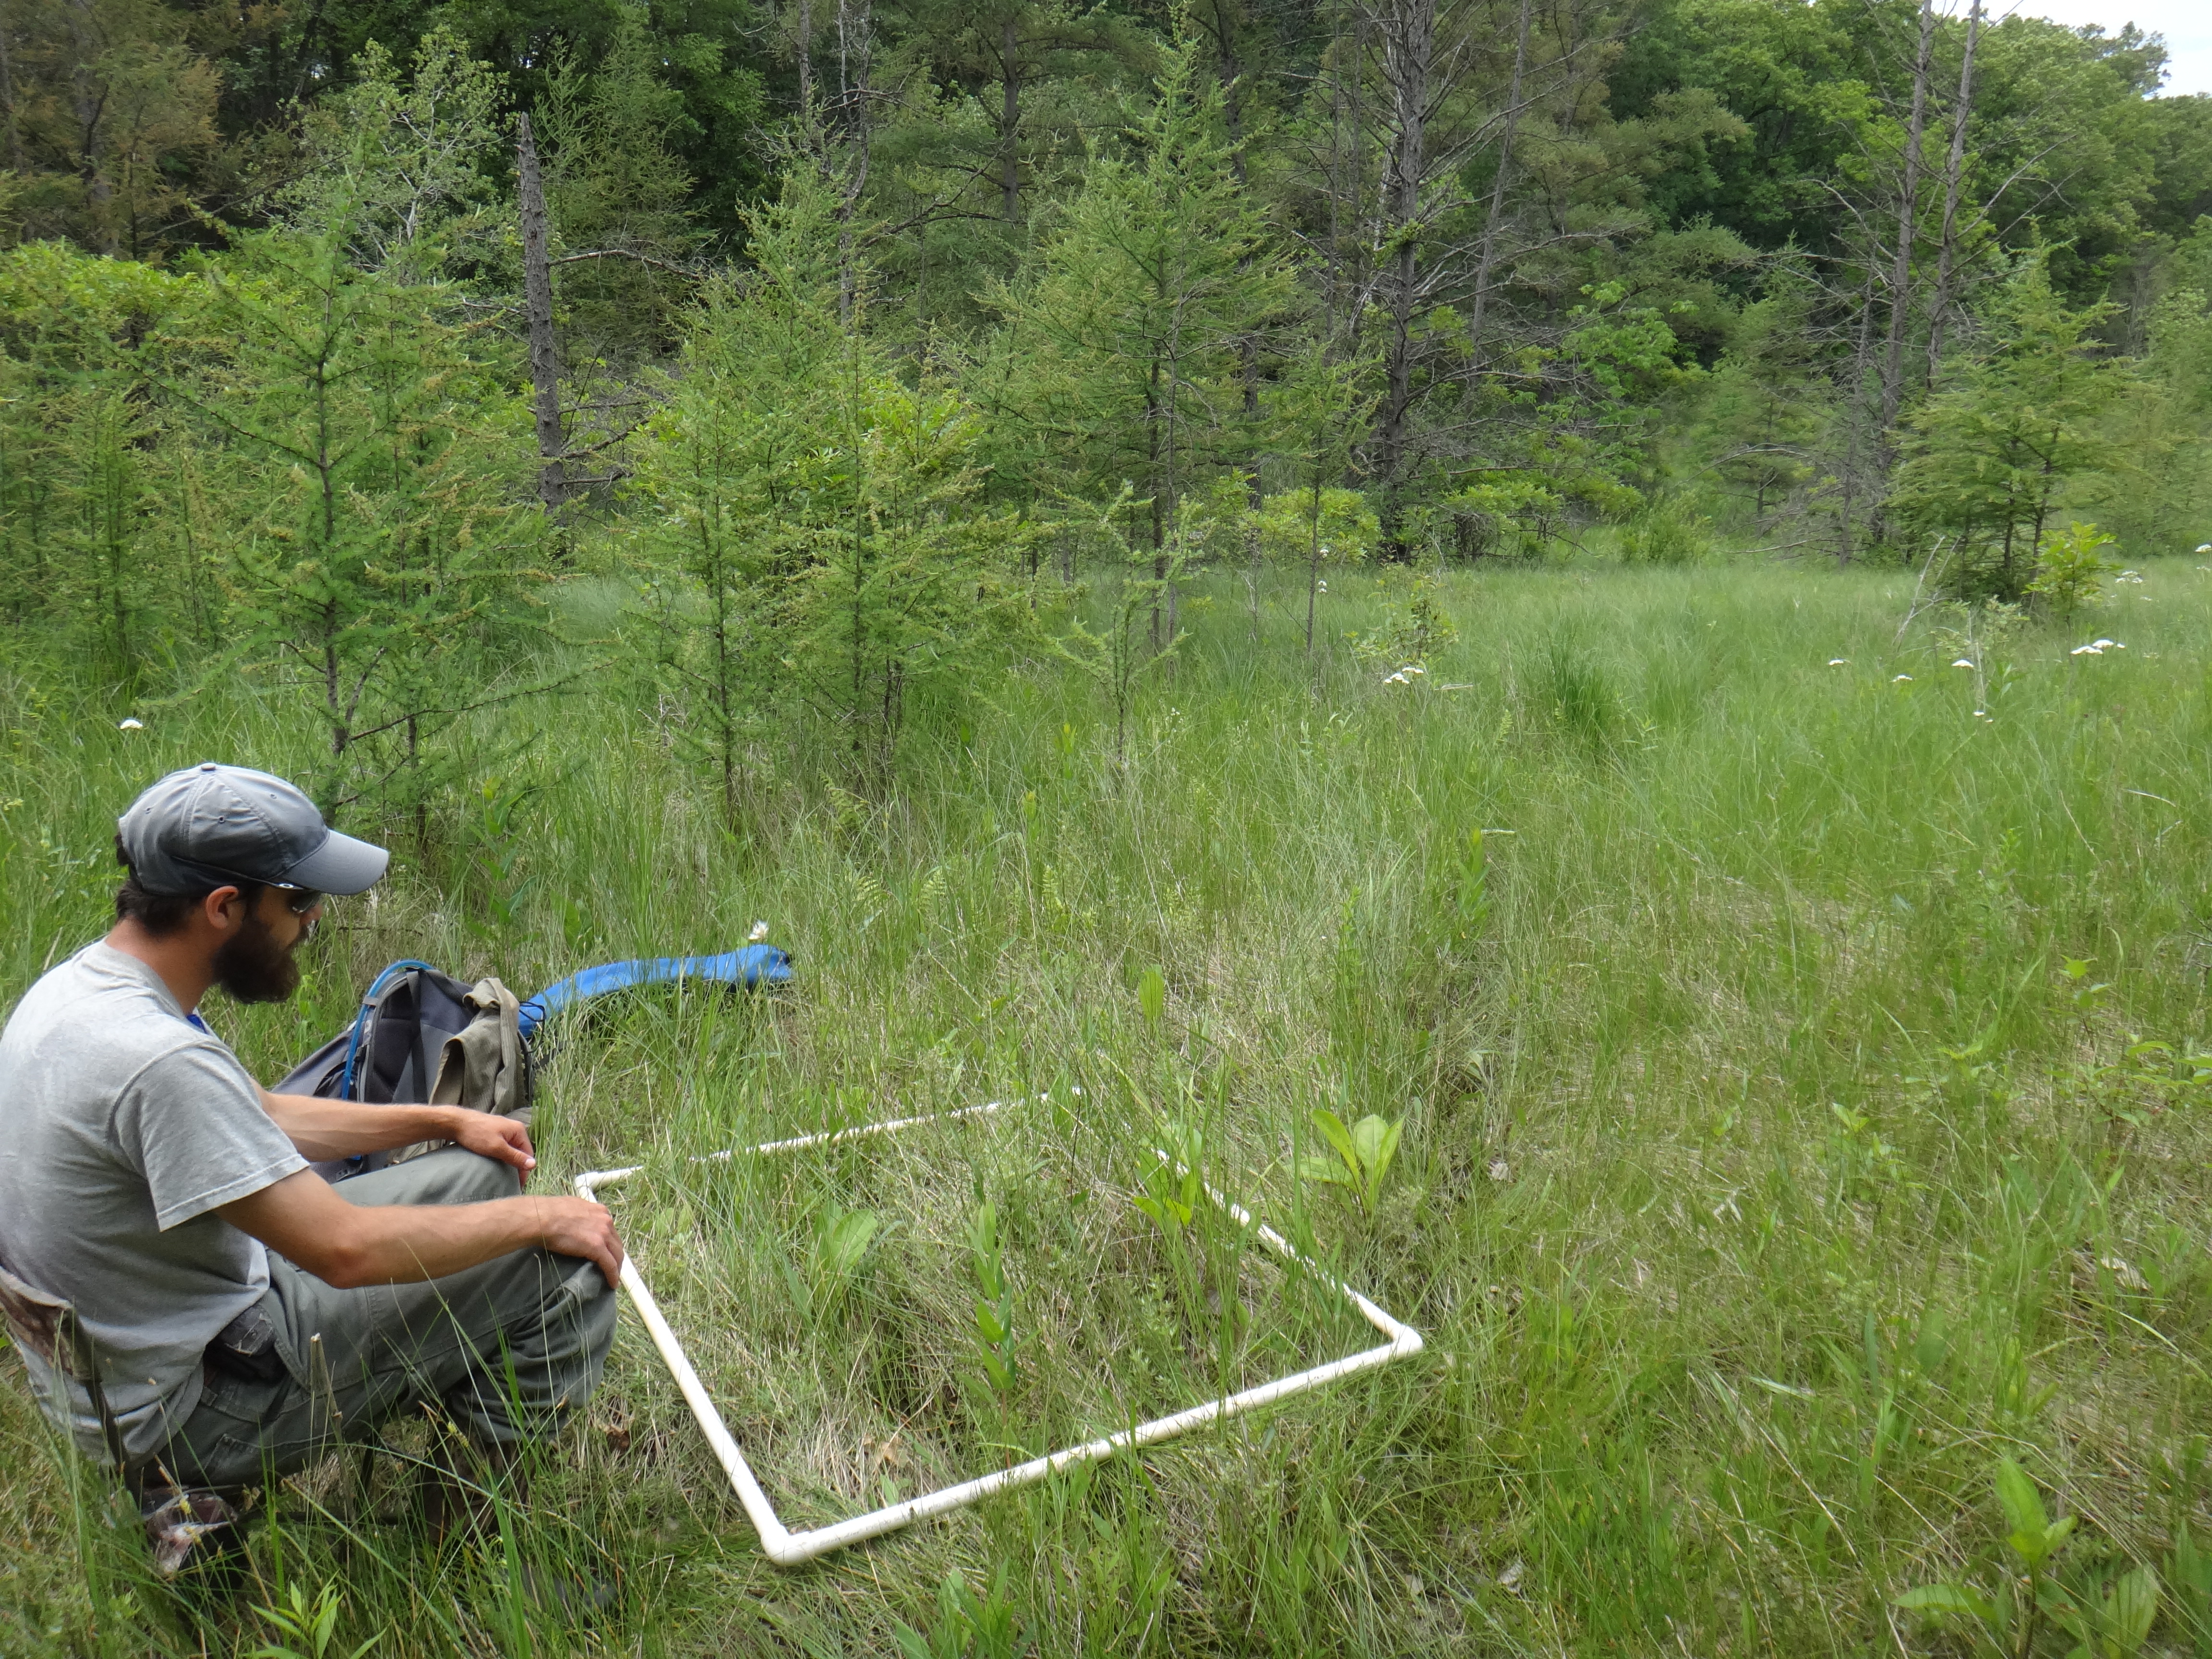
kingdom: Plantae
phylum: Tracheophyta
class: Liliopsida
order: Poales
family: Poaceae
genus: Dichanthelium
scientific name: Dichanthelium implicatum
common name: Slender-stemmed panicgrass
